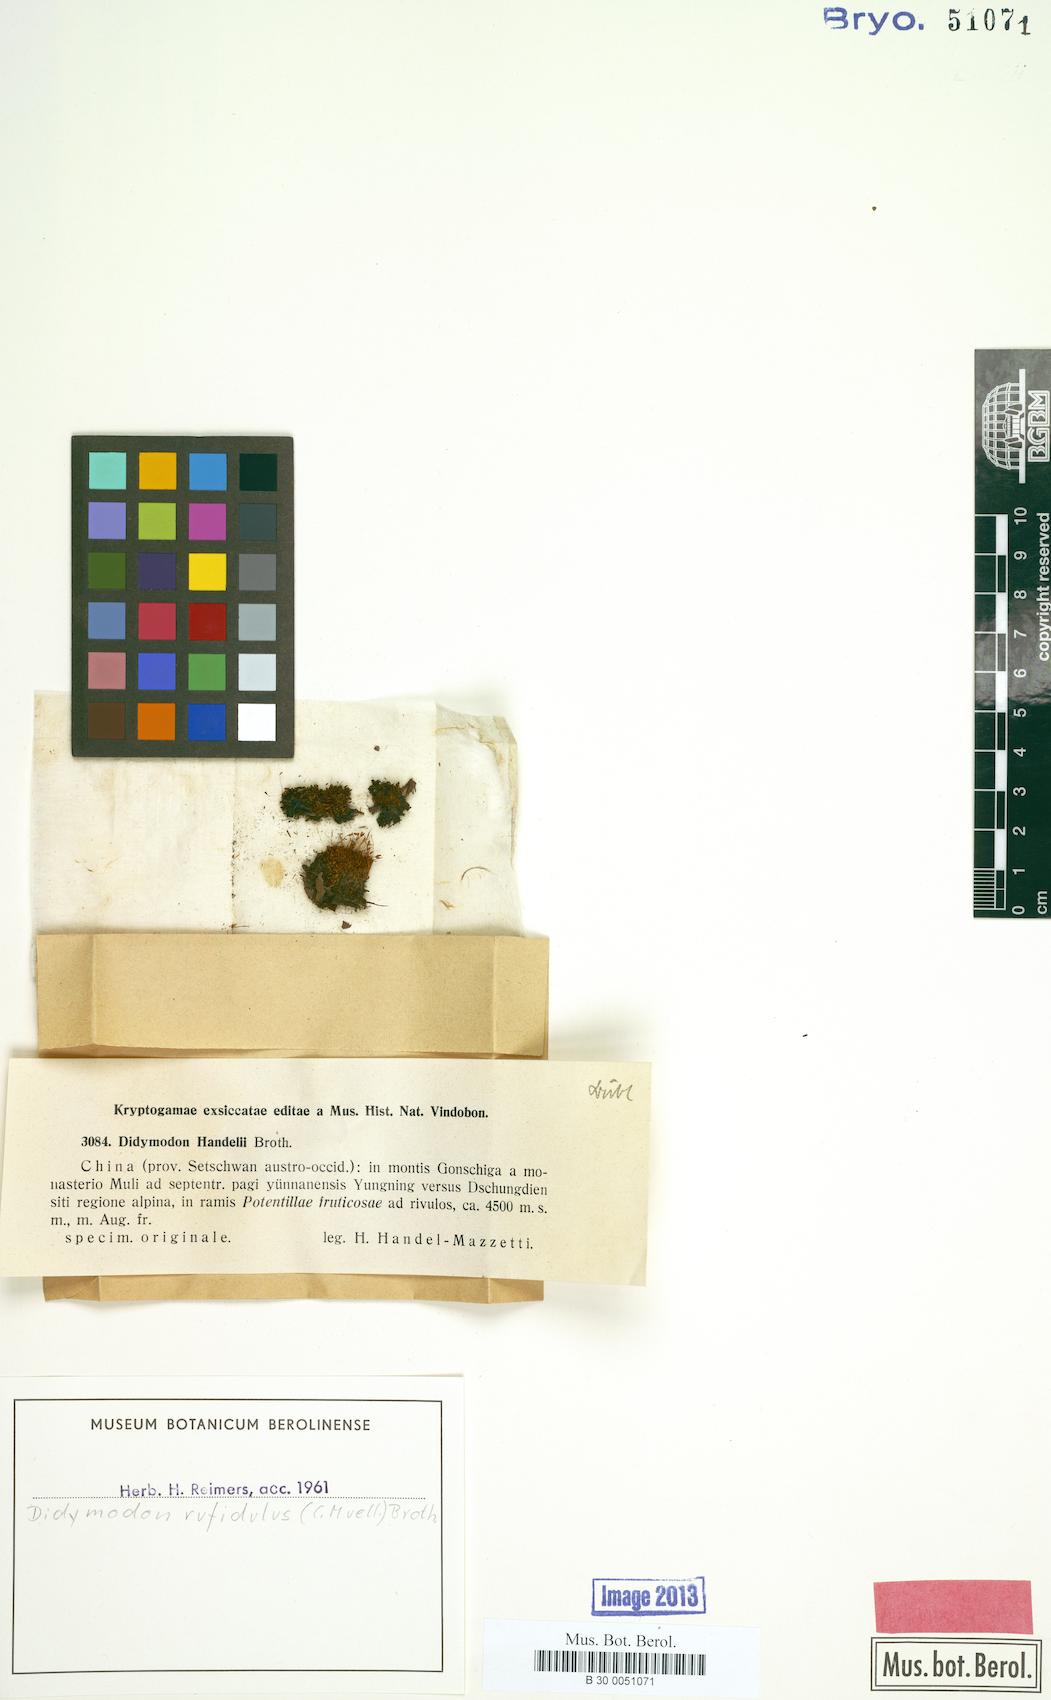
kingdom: Plantae
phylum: Bryophyta
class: Bryopsida
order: Pottiales
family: Pottiaceae
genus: Husnotiella
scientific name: Husnotiella rufidula
